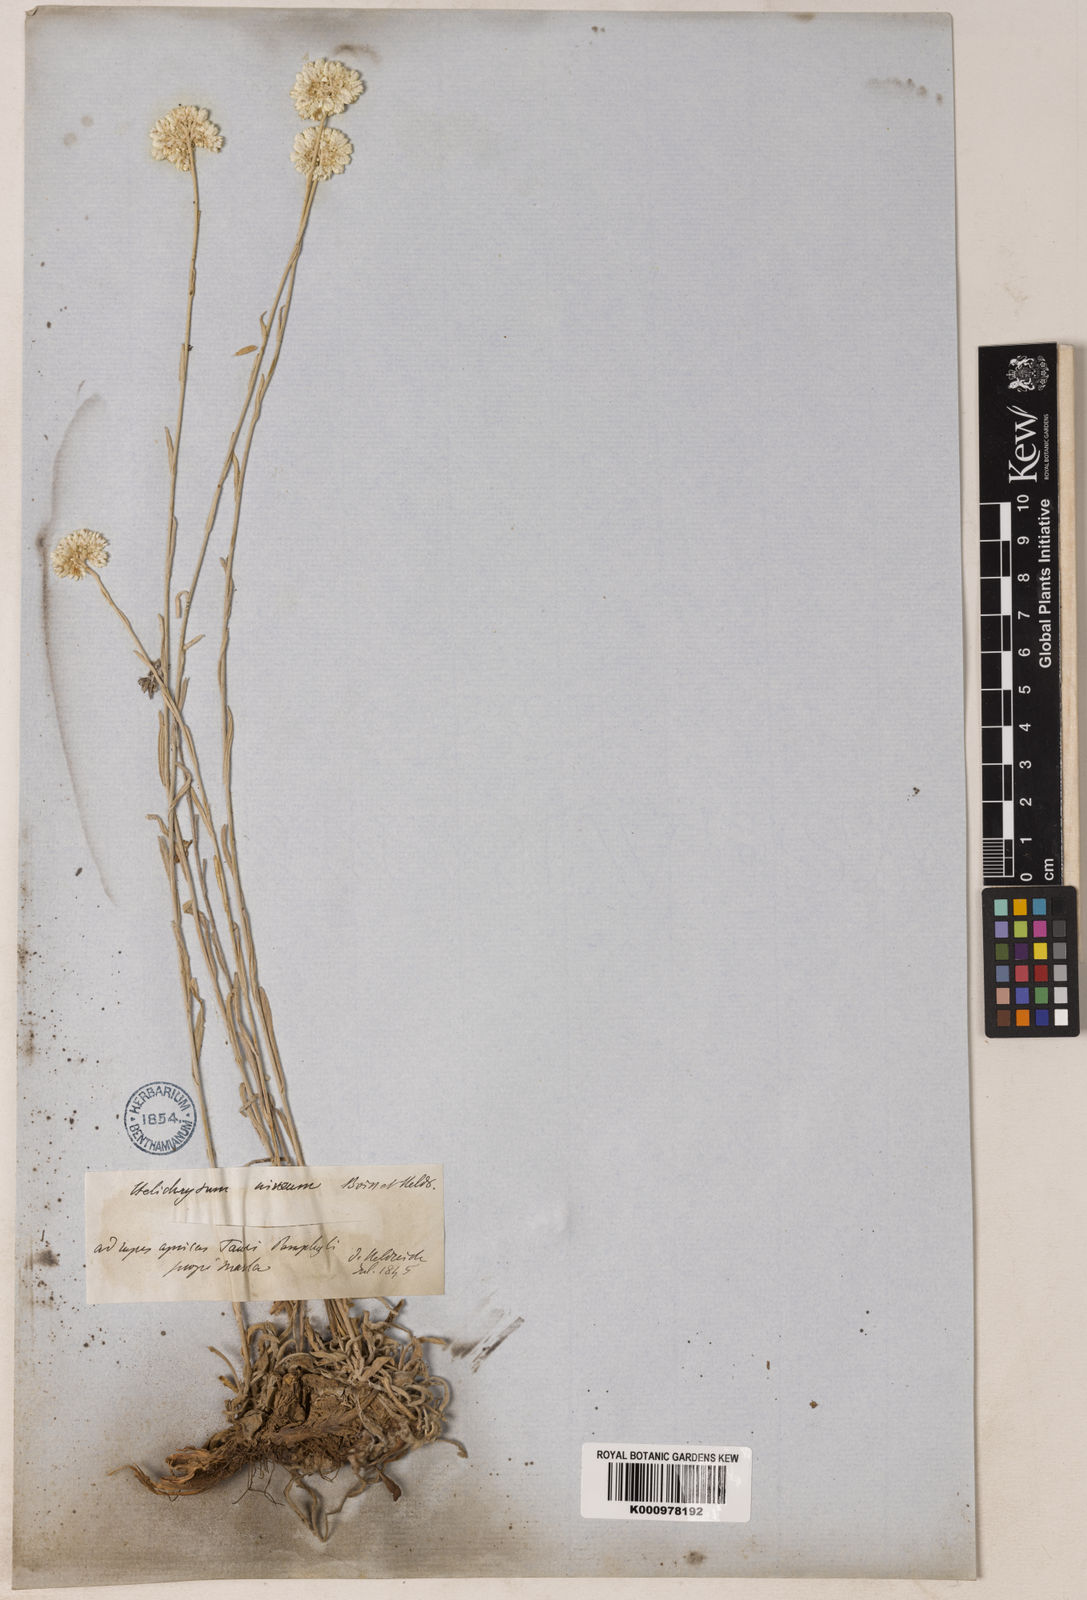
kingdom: Plantae
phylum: Tracheophyta
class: Magnoliopsida
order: Asterales
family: Asteraceae
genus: Helichrysum
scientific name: Helichrysum pamphylicum
